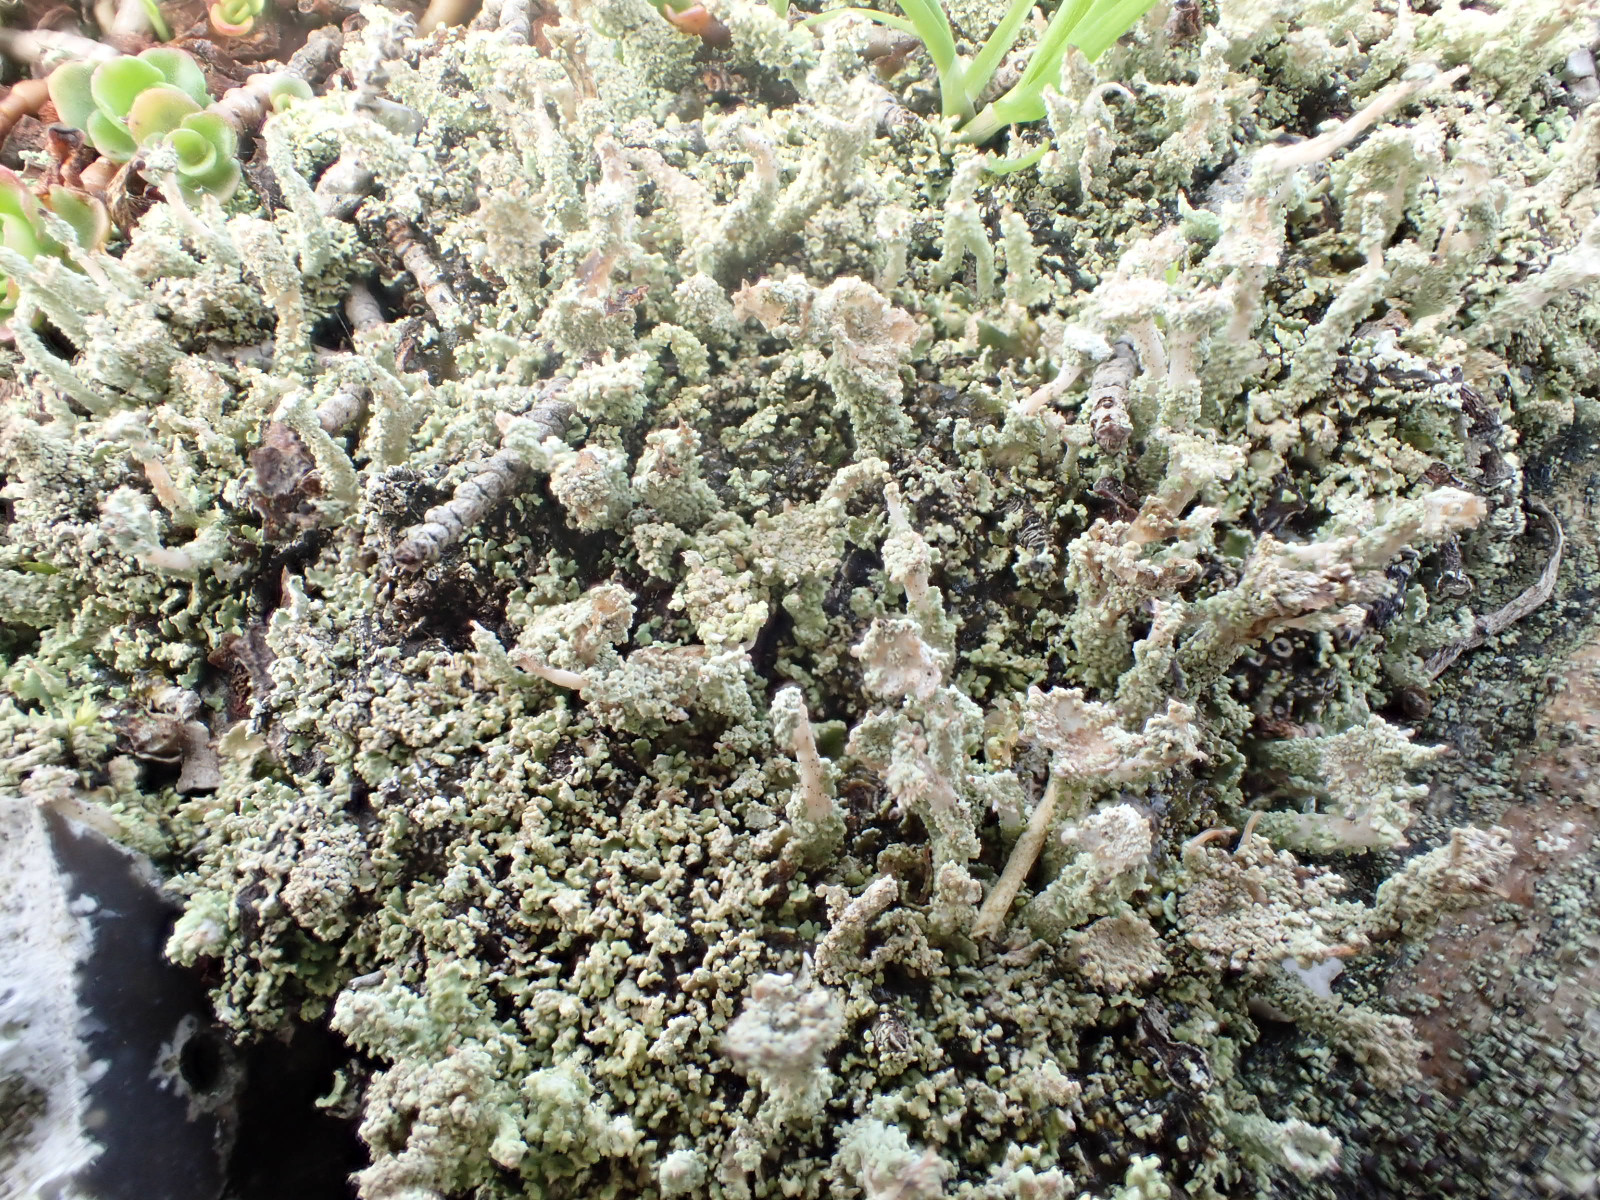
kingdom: Fungi
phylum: Ascomycota
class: Lecanoromycetes
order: Lecanorales
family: Cladoniaceae
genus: Cladonia
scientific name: Cladonia
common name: brungrøn bægerlav
